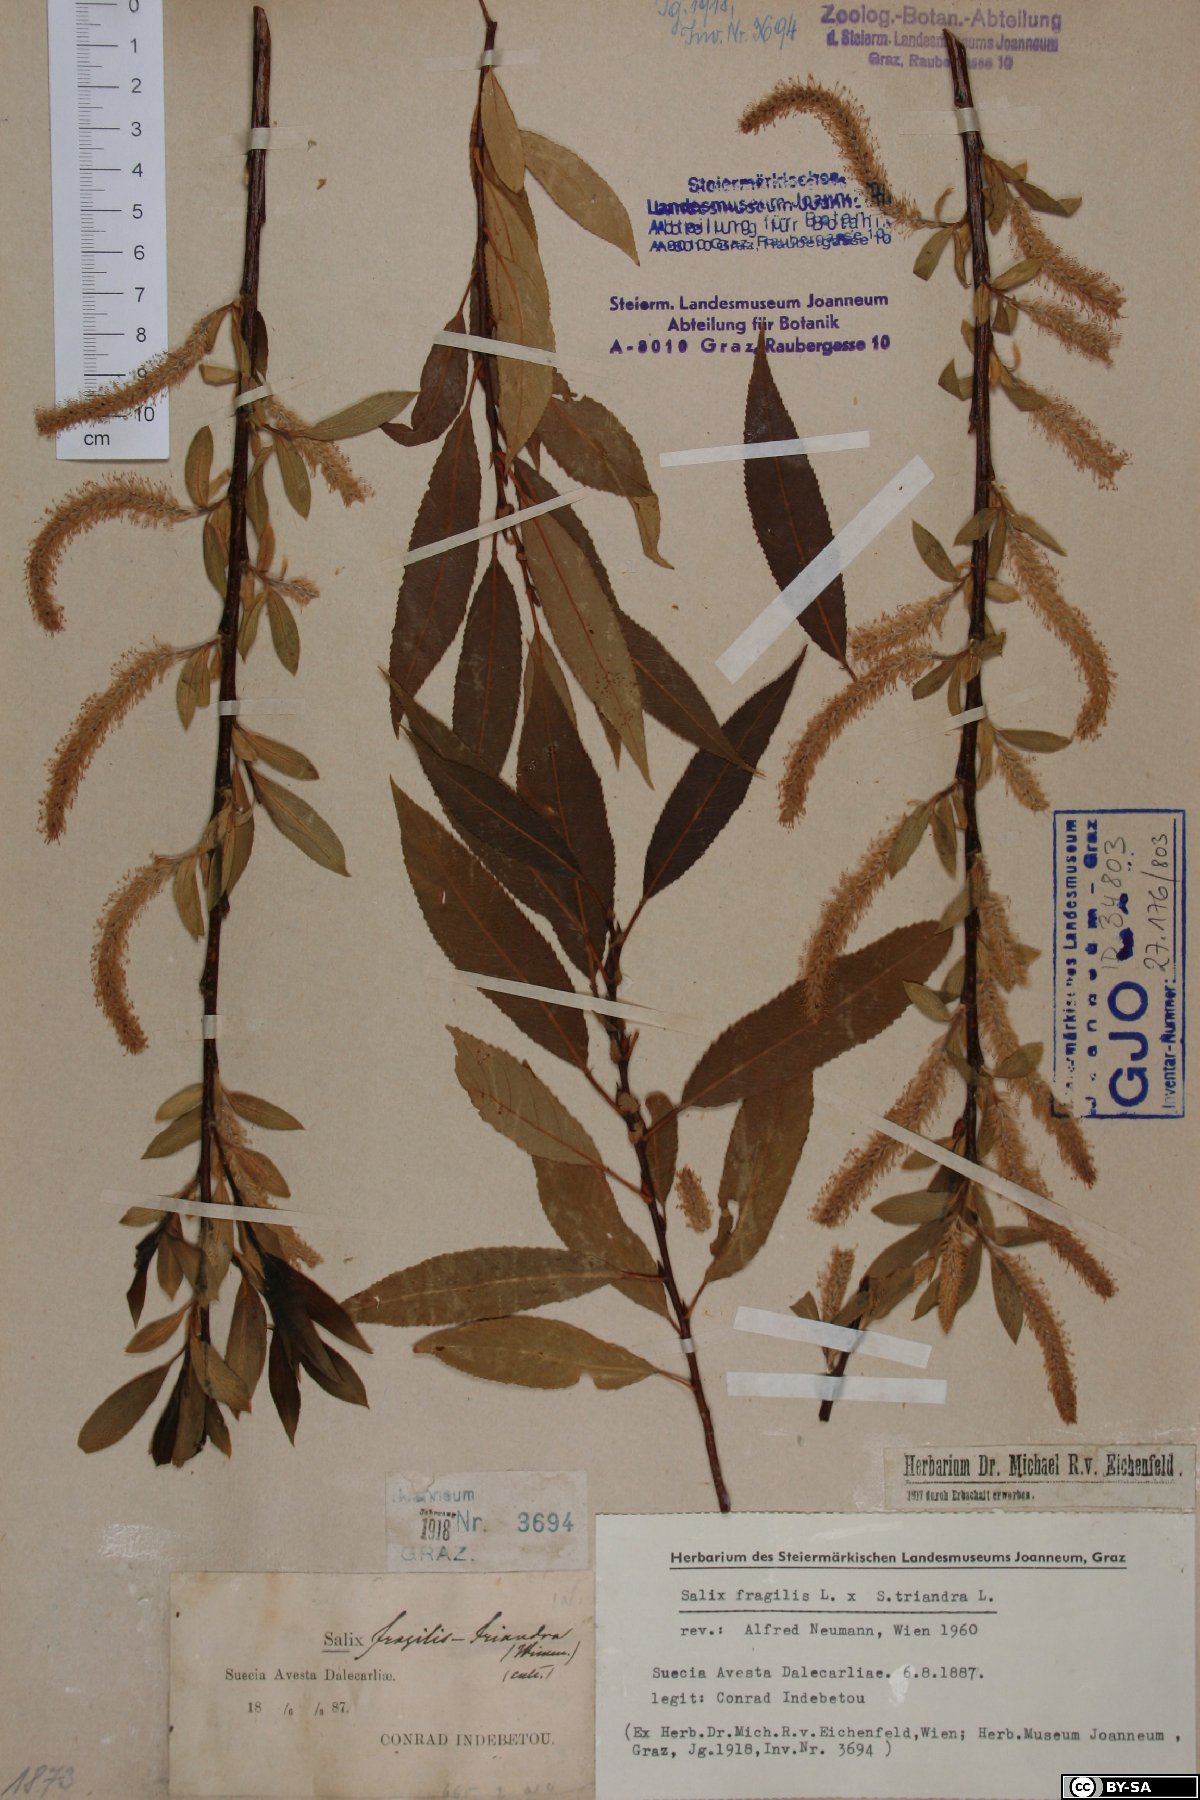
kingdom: Plantae
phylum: Tracheophyta
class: Magnoliopsida
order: Malpighiales
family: Salicaceae
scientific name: Salicaceae
